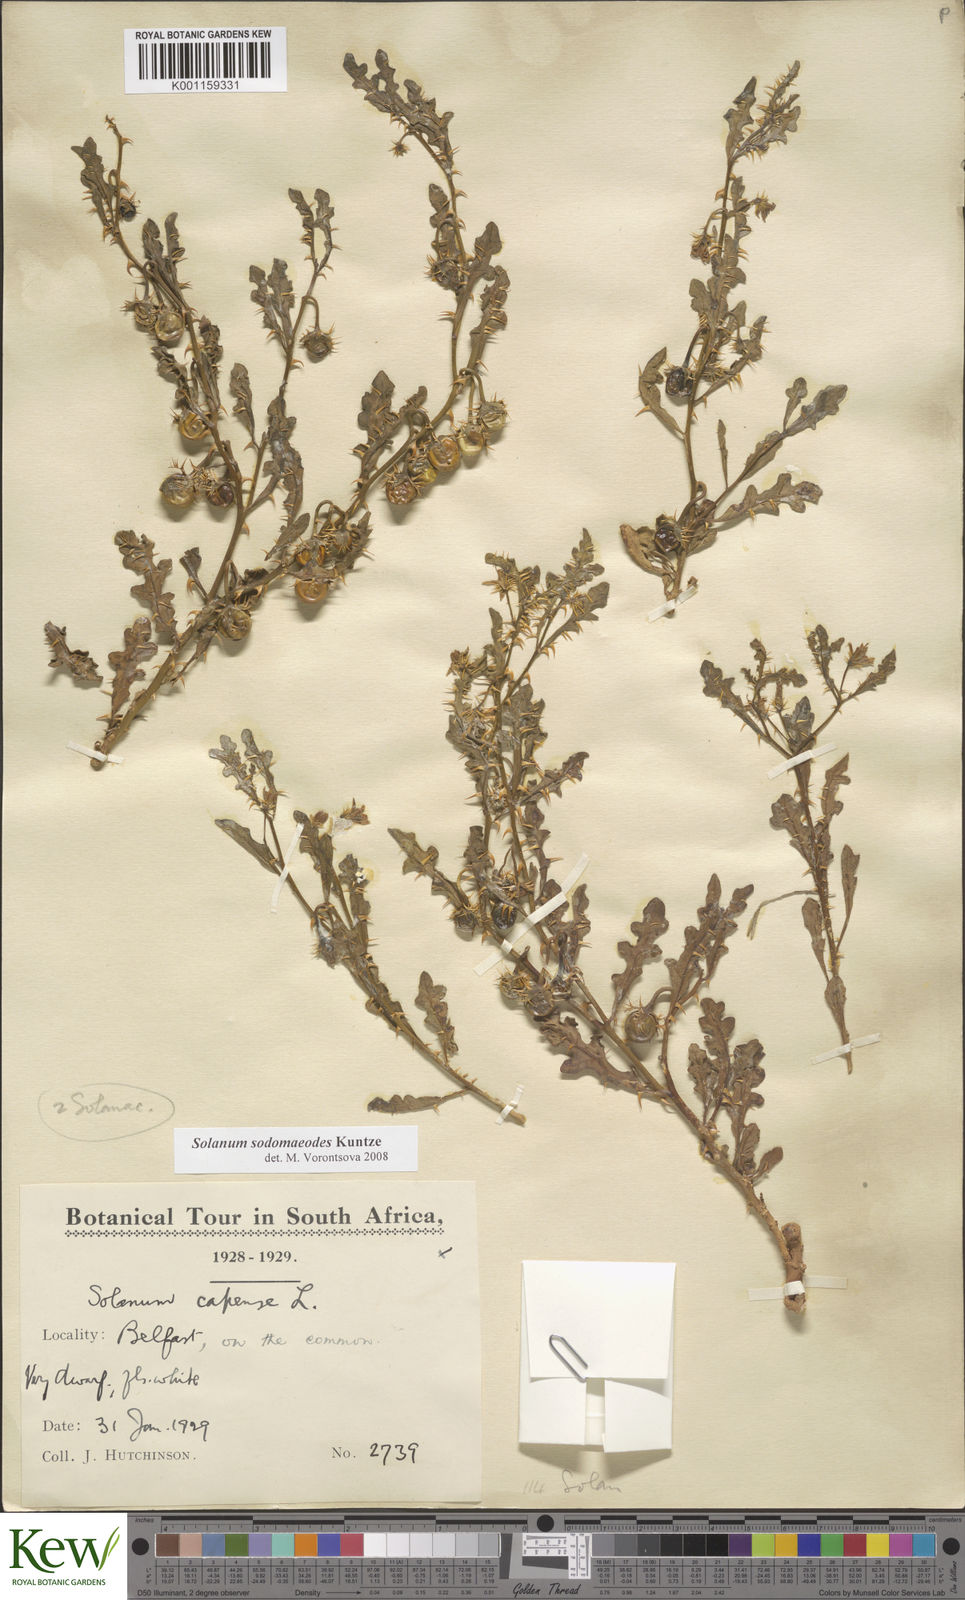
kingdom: Plantae
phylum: Tracheophyta
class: Magnoliopsida
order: Solanales
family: Solanaceae
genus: Solanum
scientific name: Solanum linnaeanum
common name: Nightshade
